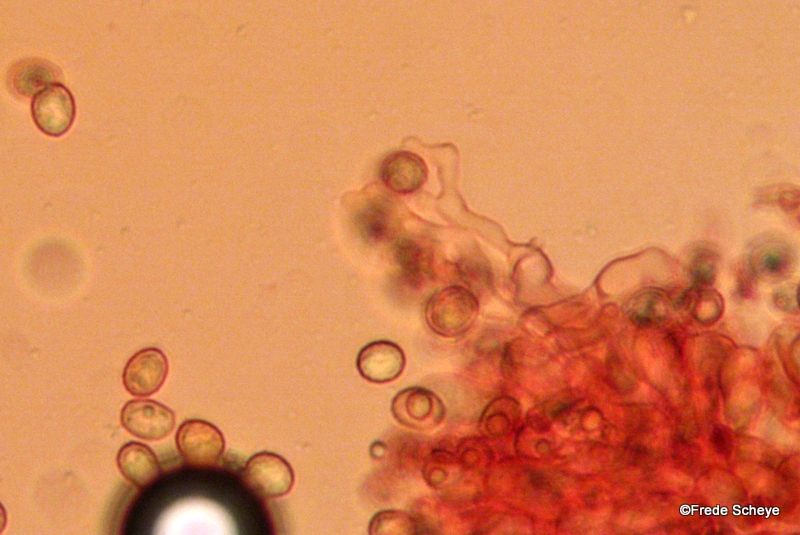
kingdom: Fungi
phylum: Basidiomycota
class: Agaricomycetes
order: Agaricales
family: Crepidotaceae
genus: Crepidotus
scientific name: Crepidotus cesatii
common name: almindelig muslingesvamp
